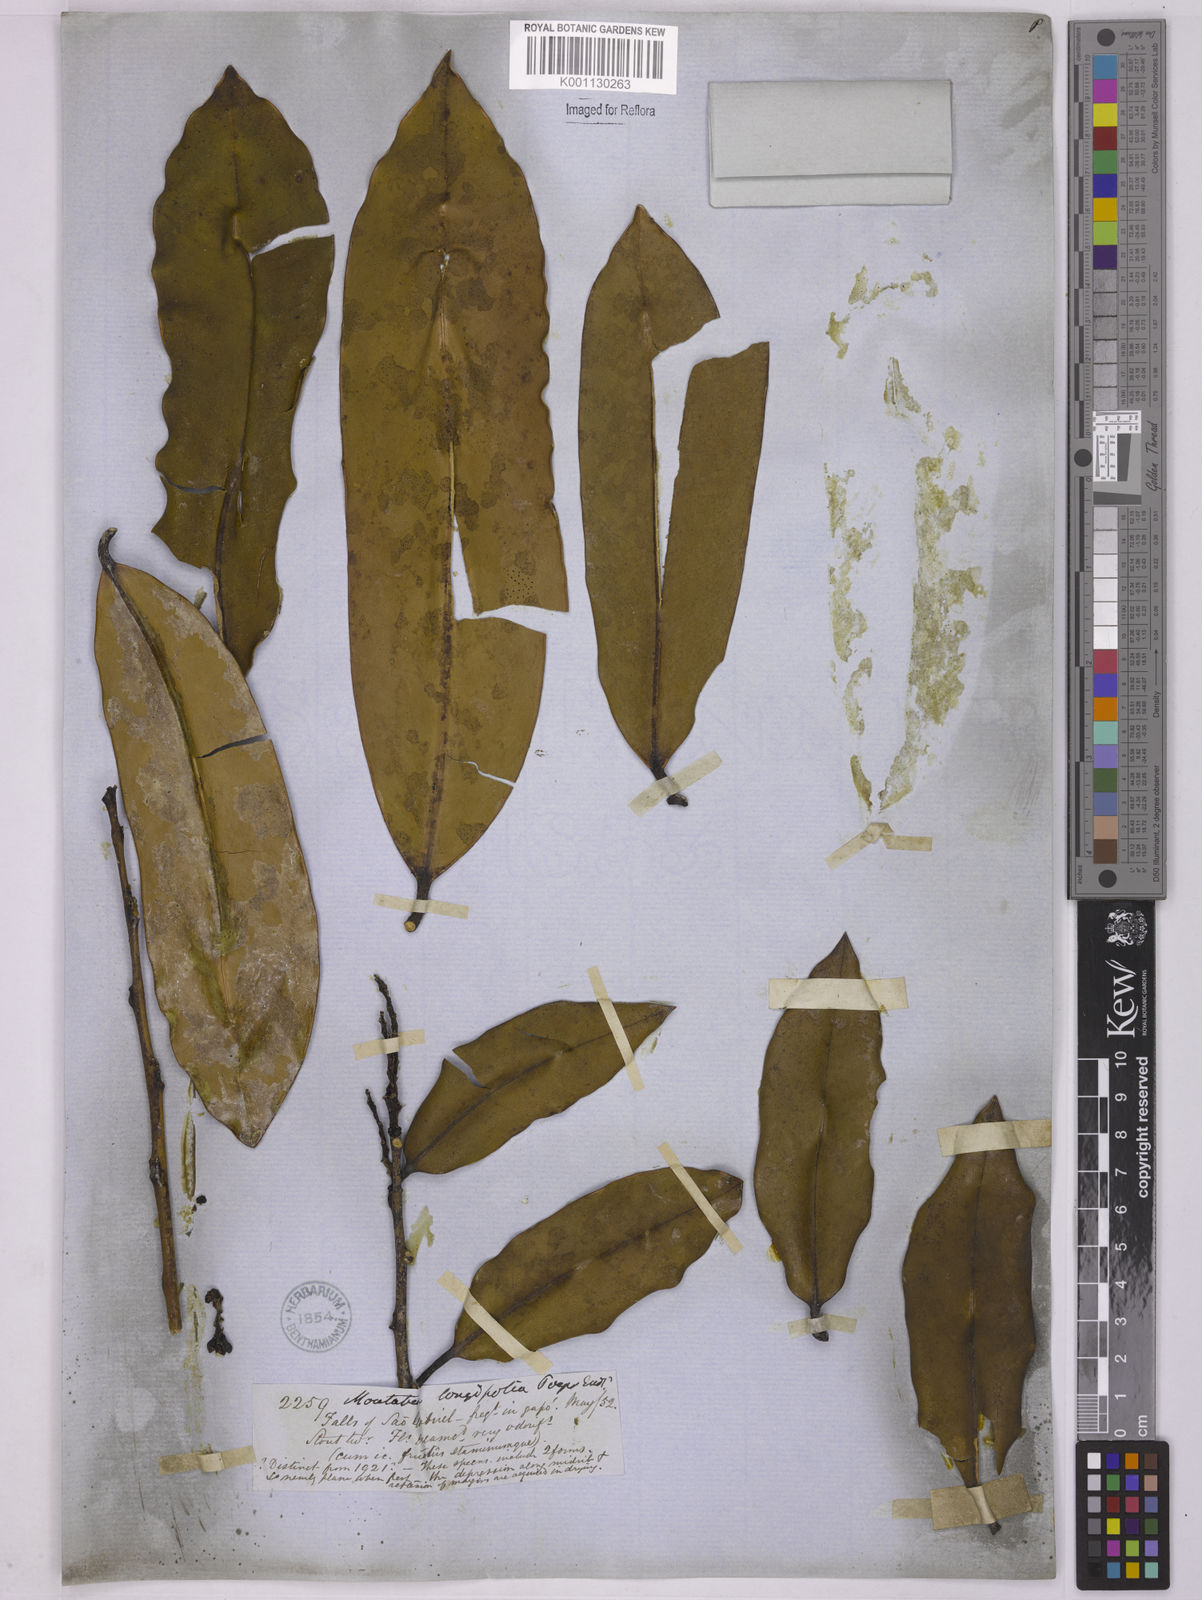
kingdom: Plantae
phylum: Tracheophyta
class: Magnoliopsida
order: Fabales
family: Polygalaceae
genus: Moutabea
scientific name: Moutabea aculeata
